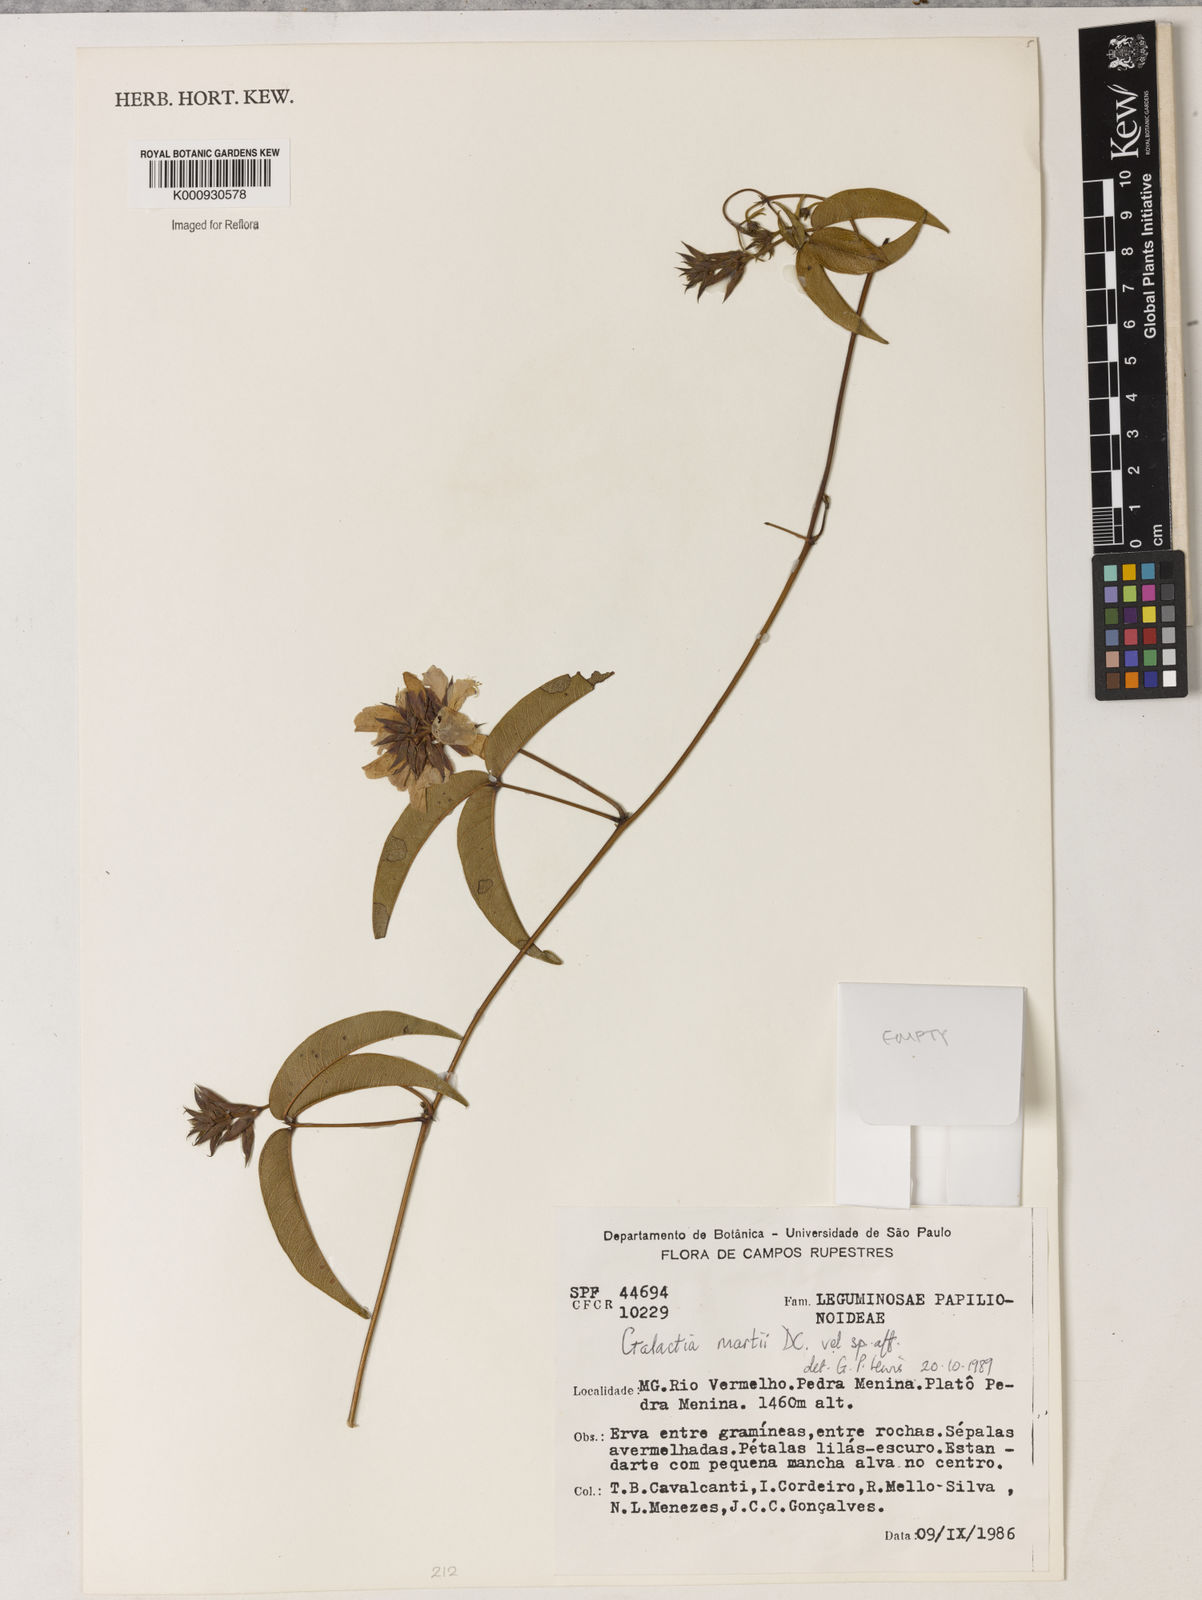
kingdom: Plantae
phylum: Tracheophyta
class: Magnoliopsida
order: Fabales
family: Fabaceae
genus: Betencourtia
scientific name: Betencourtia neesii
